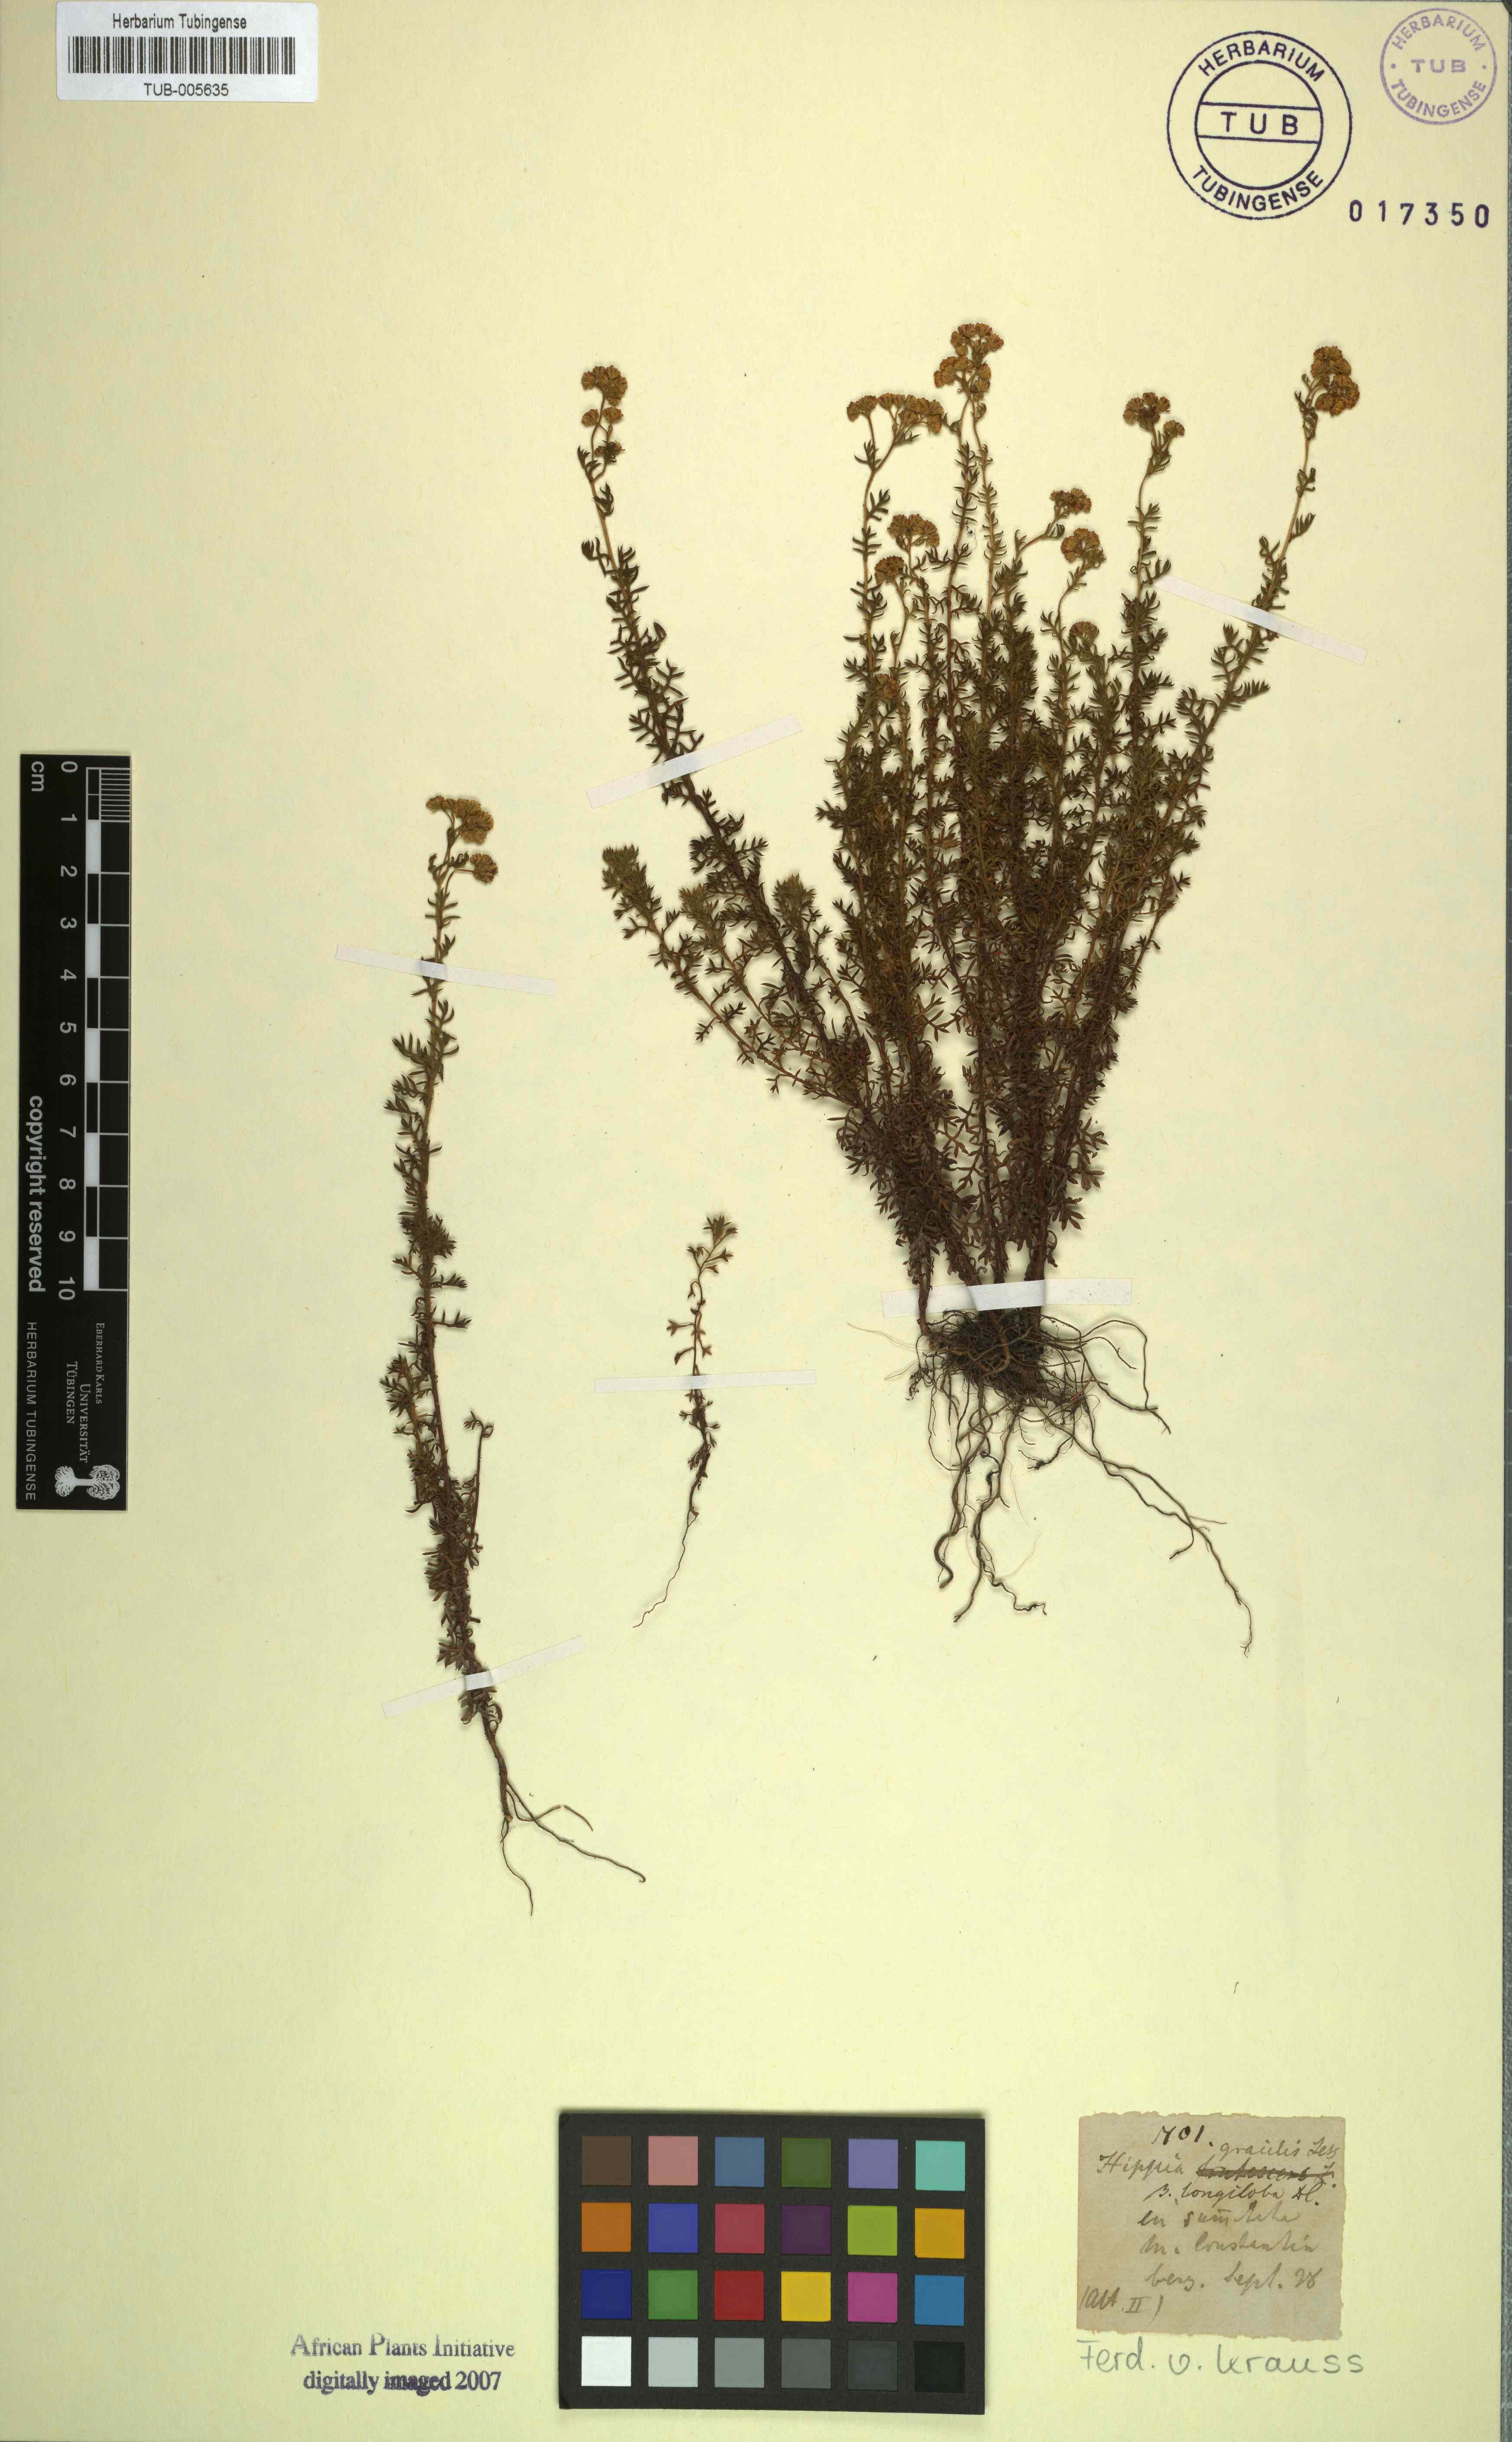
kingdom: Plantae
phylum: Tracheophyta
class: Magnoliopsida
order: Asterales
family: Asteraceae
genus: Hippia
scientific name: Hippia pilosa
